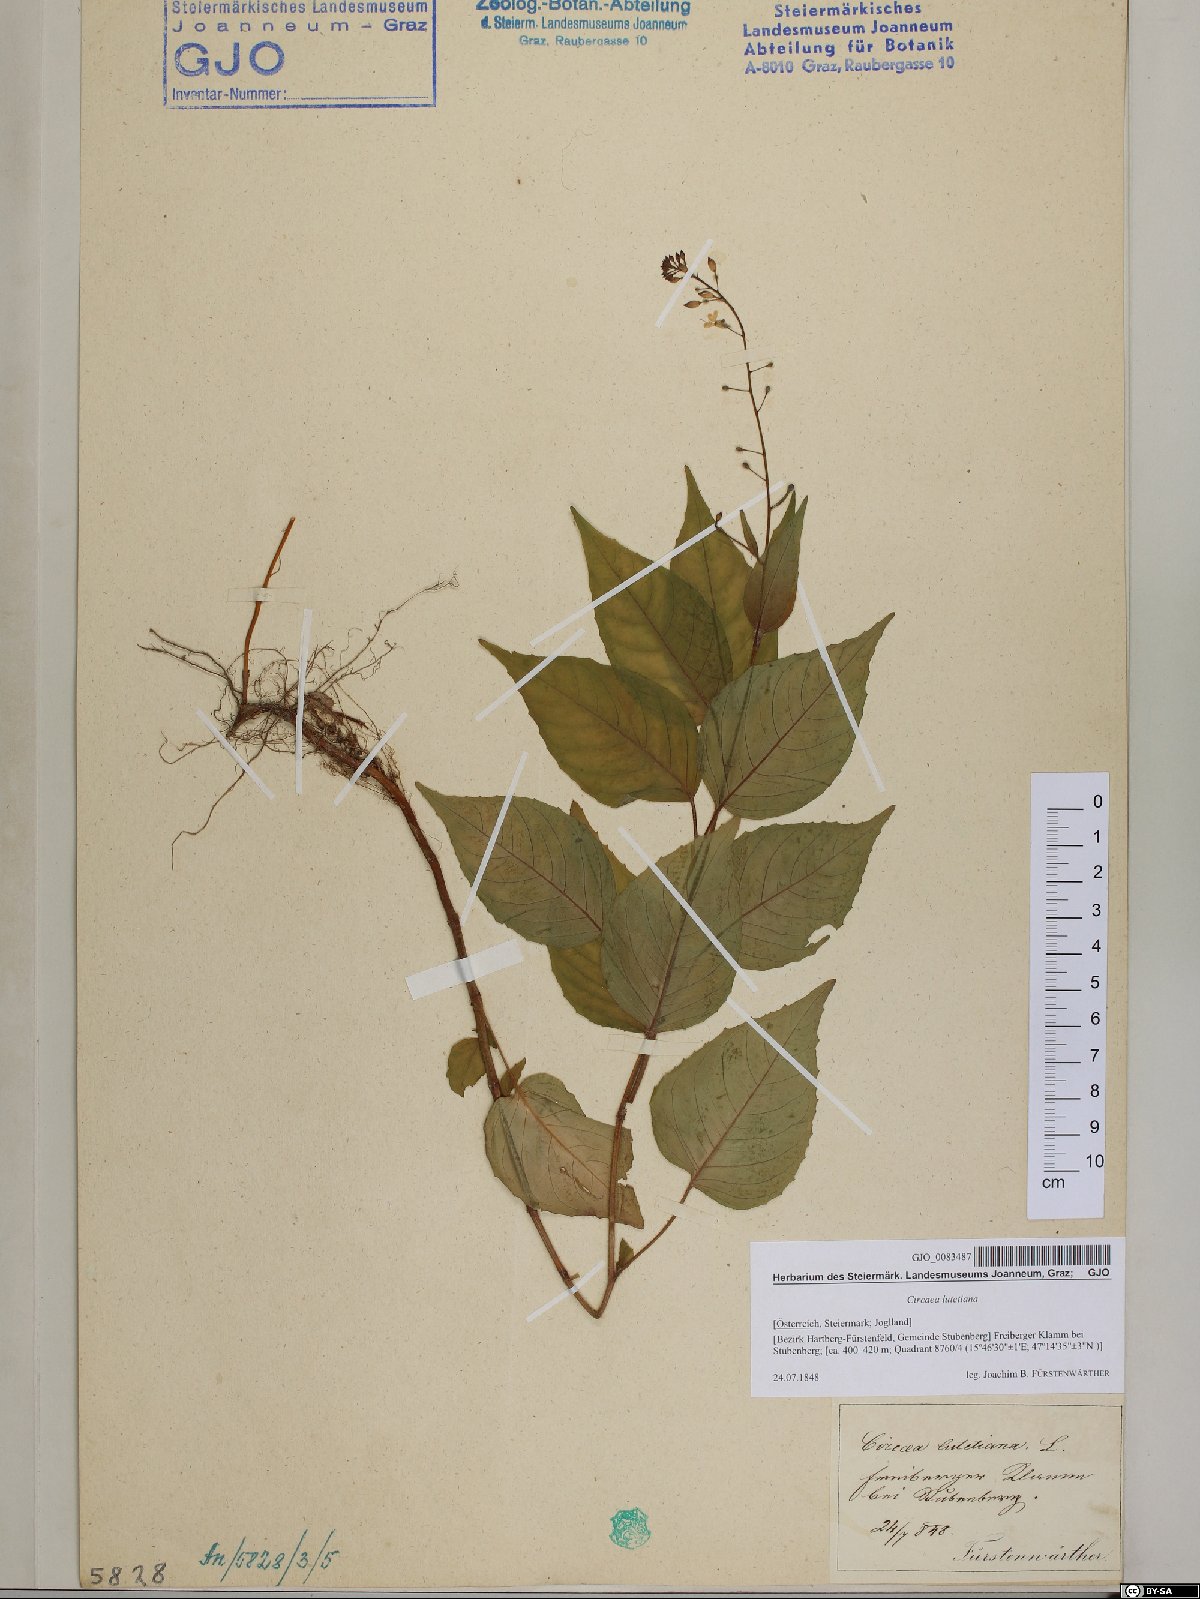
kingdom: Plantae
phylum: Tracheophyta
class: Magnoliopsida
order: Myrtales
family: Onagraceae
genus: Circaea
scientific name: Circaea lutetiana
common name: Enchanter's-nightshade
